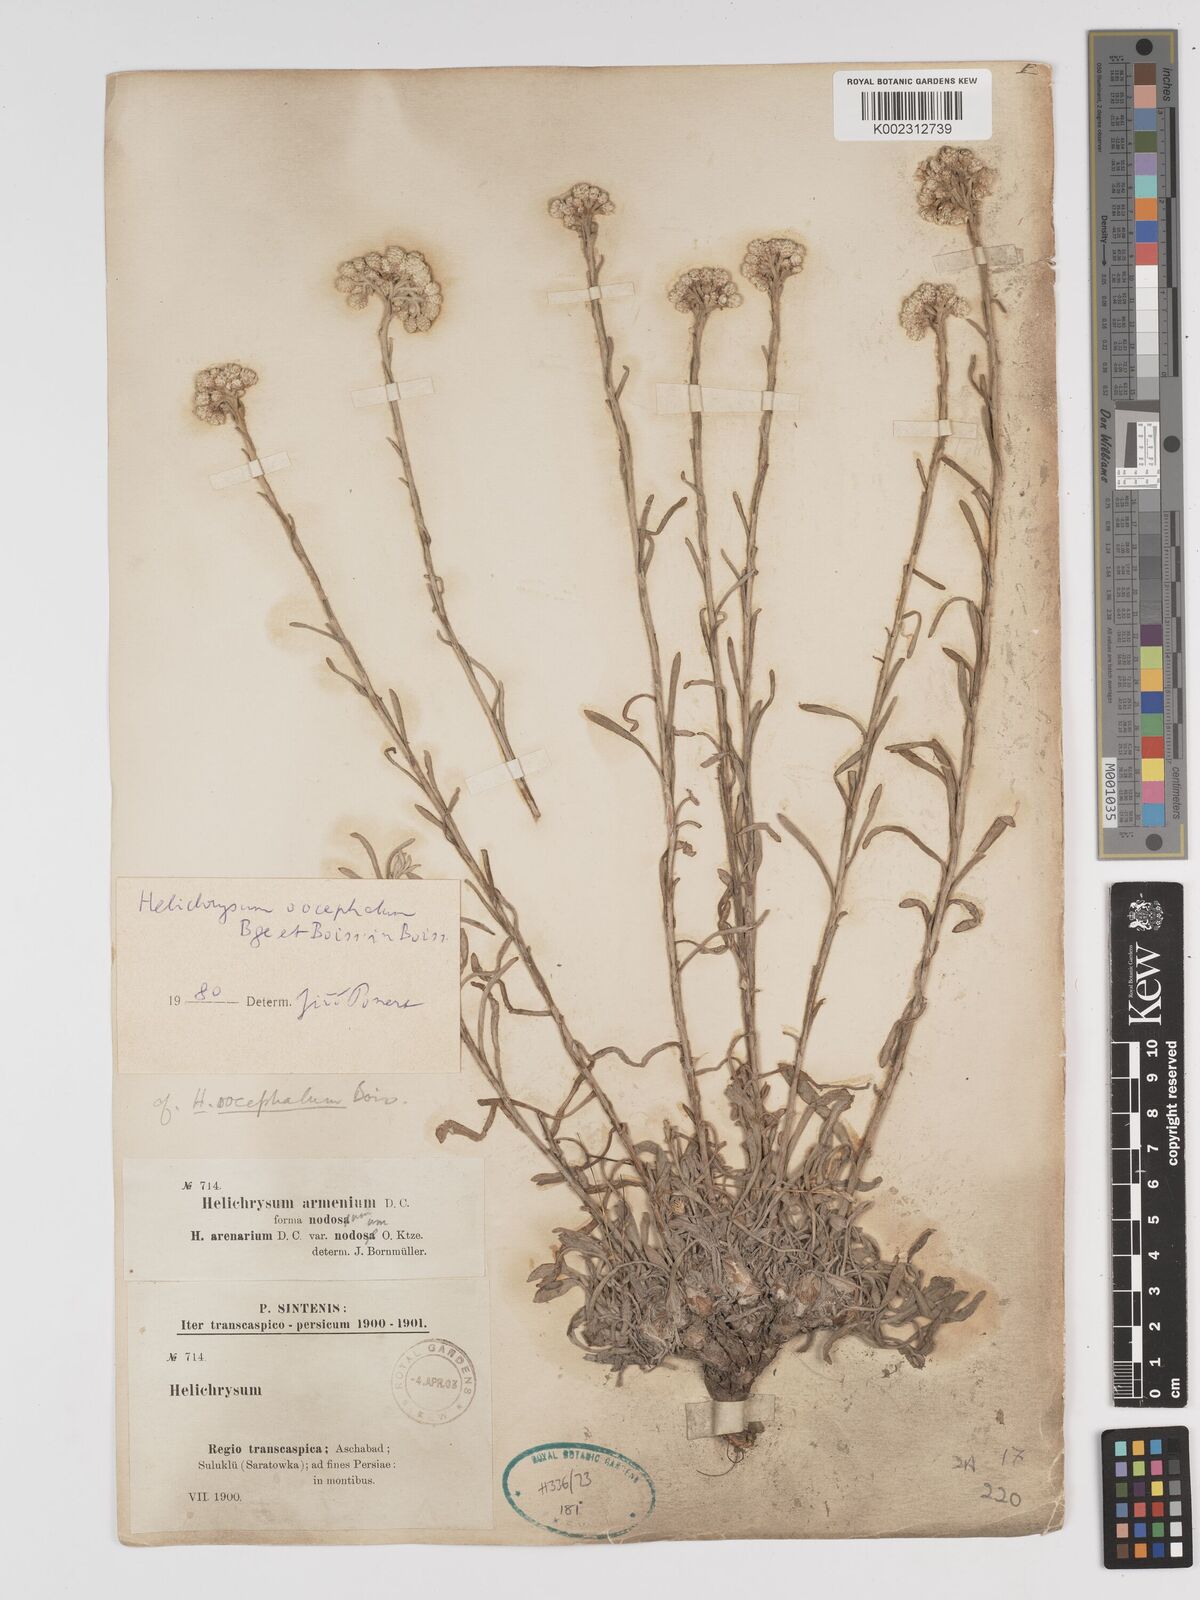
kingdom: Plantae
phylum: Tracheophyta
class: Magnoliopsida
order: Asterales
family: Asteraceae
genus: Helichrysum
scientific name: Helichrysum oocephalum
